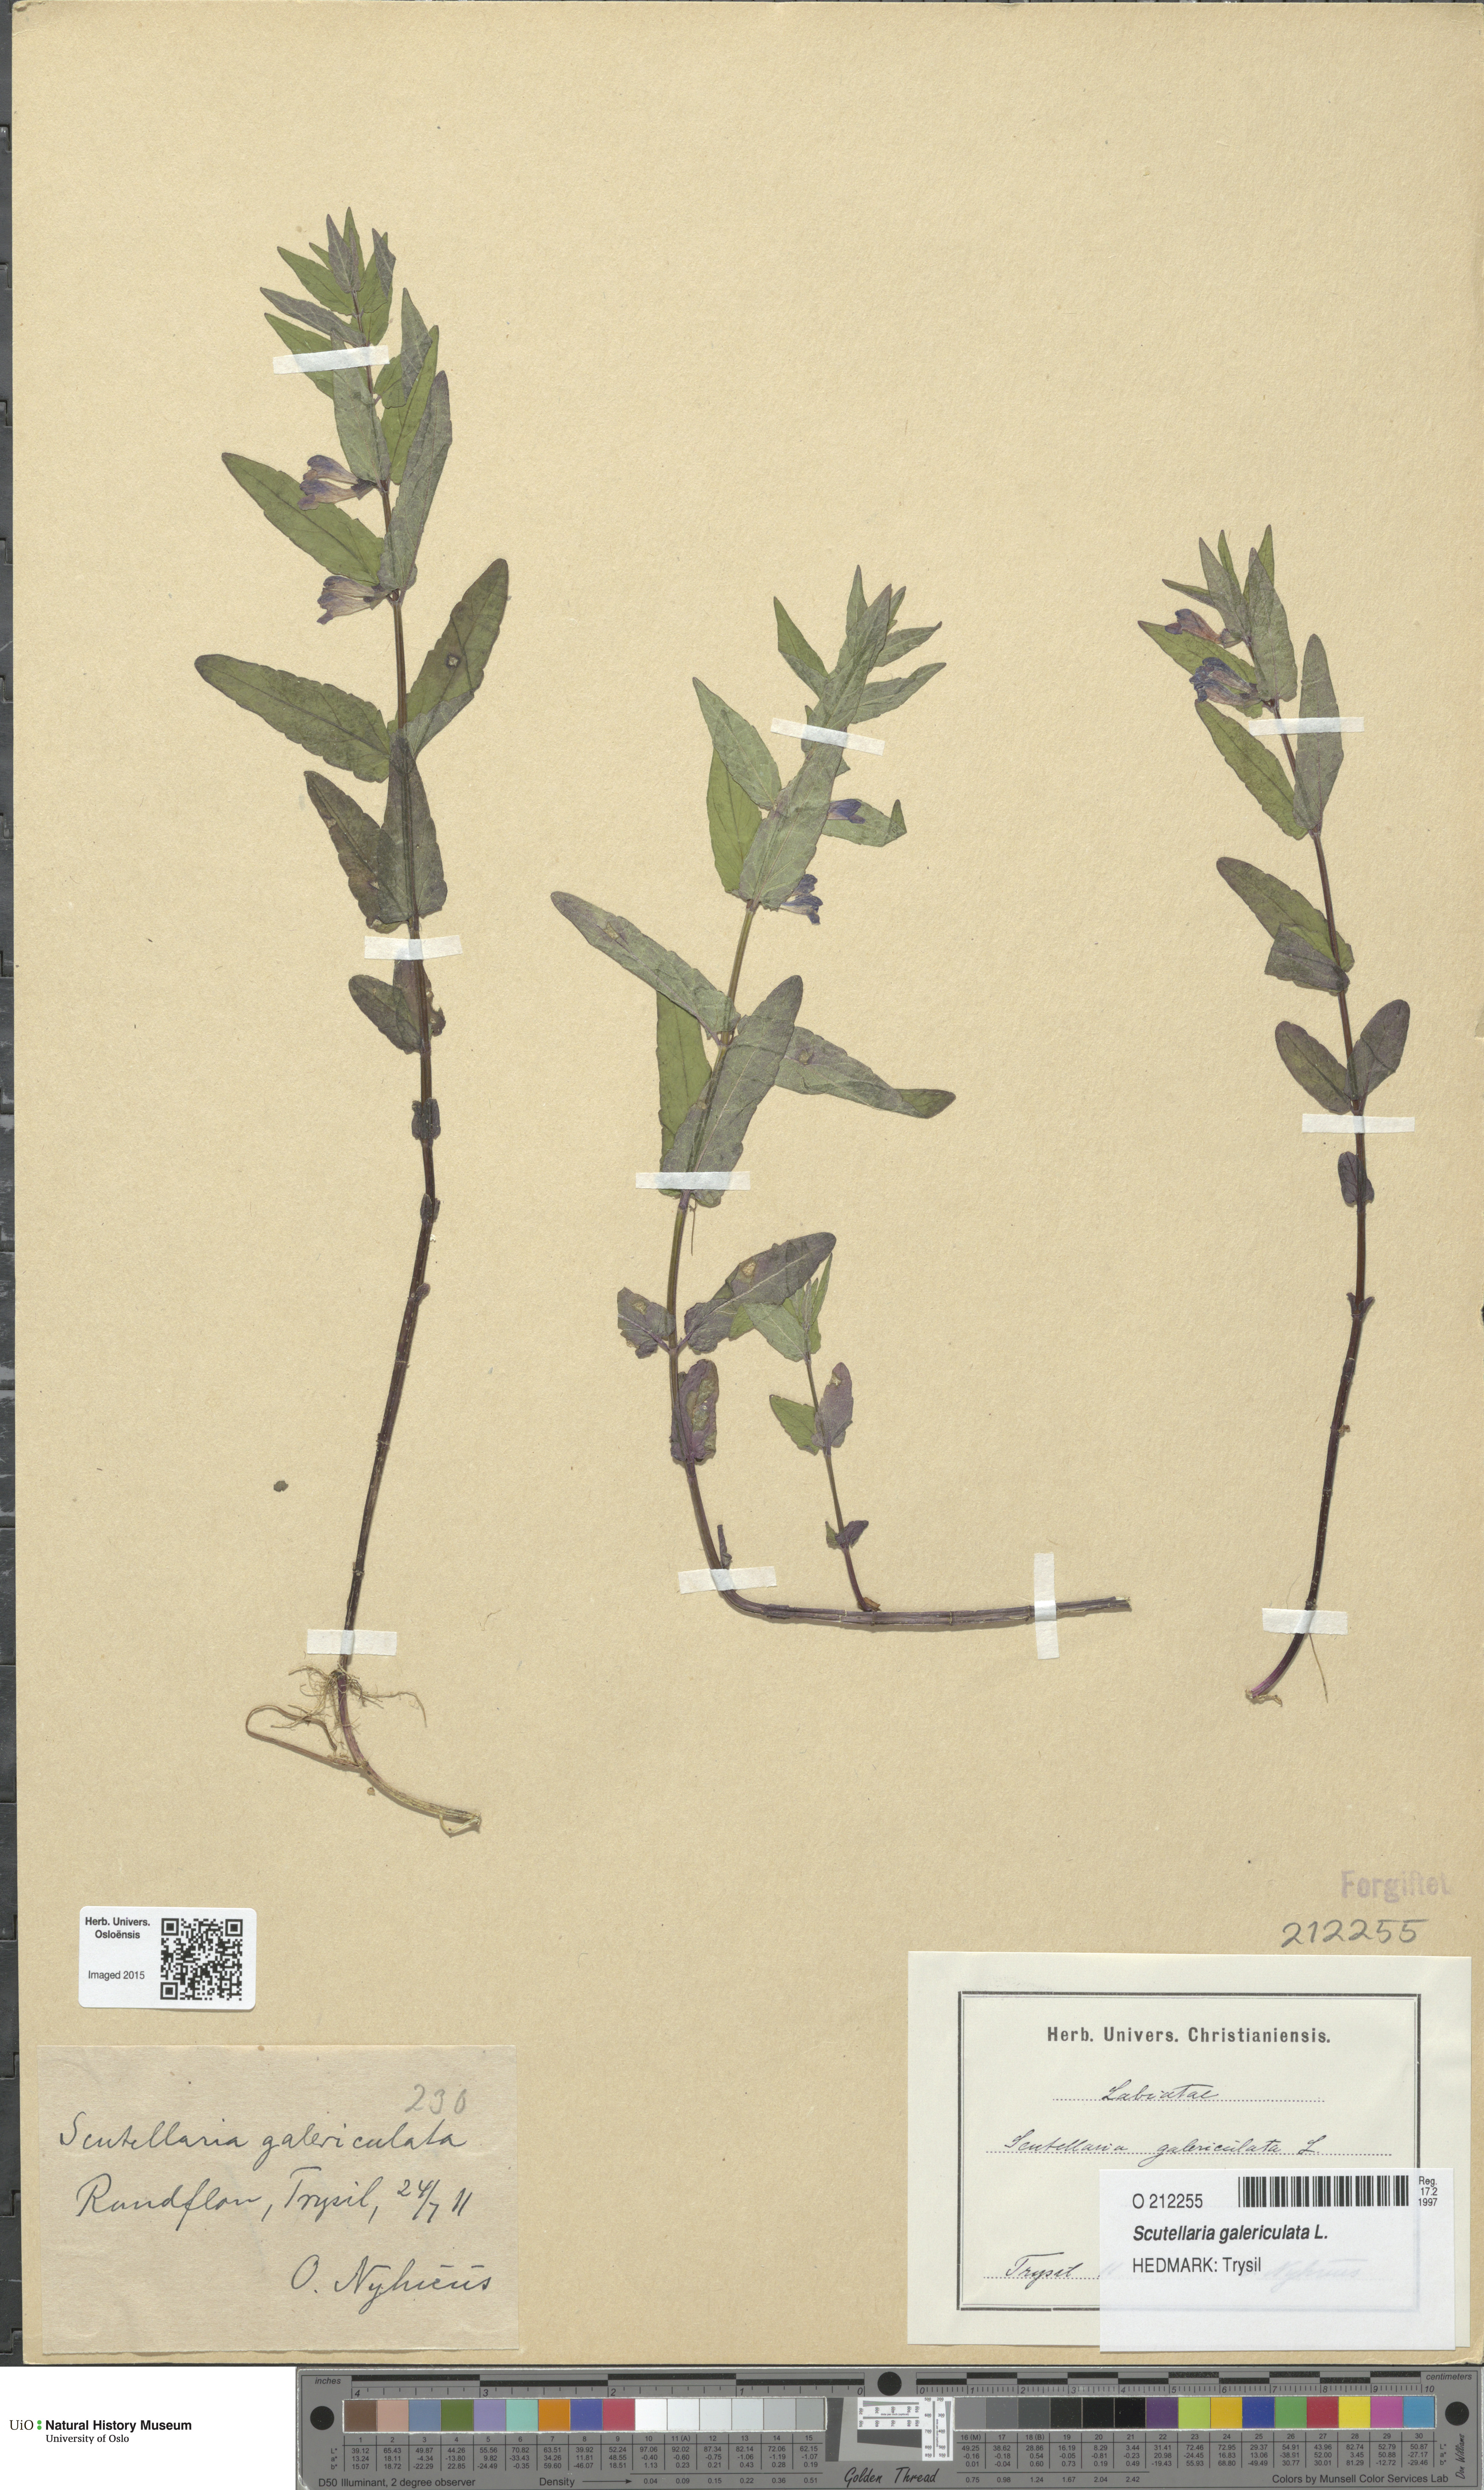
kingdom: Plantae
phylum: Tracheophyta
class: Magnoliopsida
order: Lamiales
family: Lamiaceae
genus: Scutellaria
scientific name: Scutellaria galericulata
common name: Skullcap
